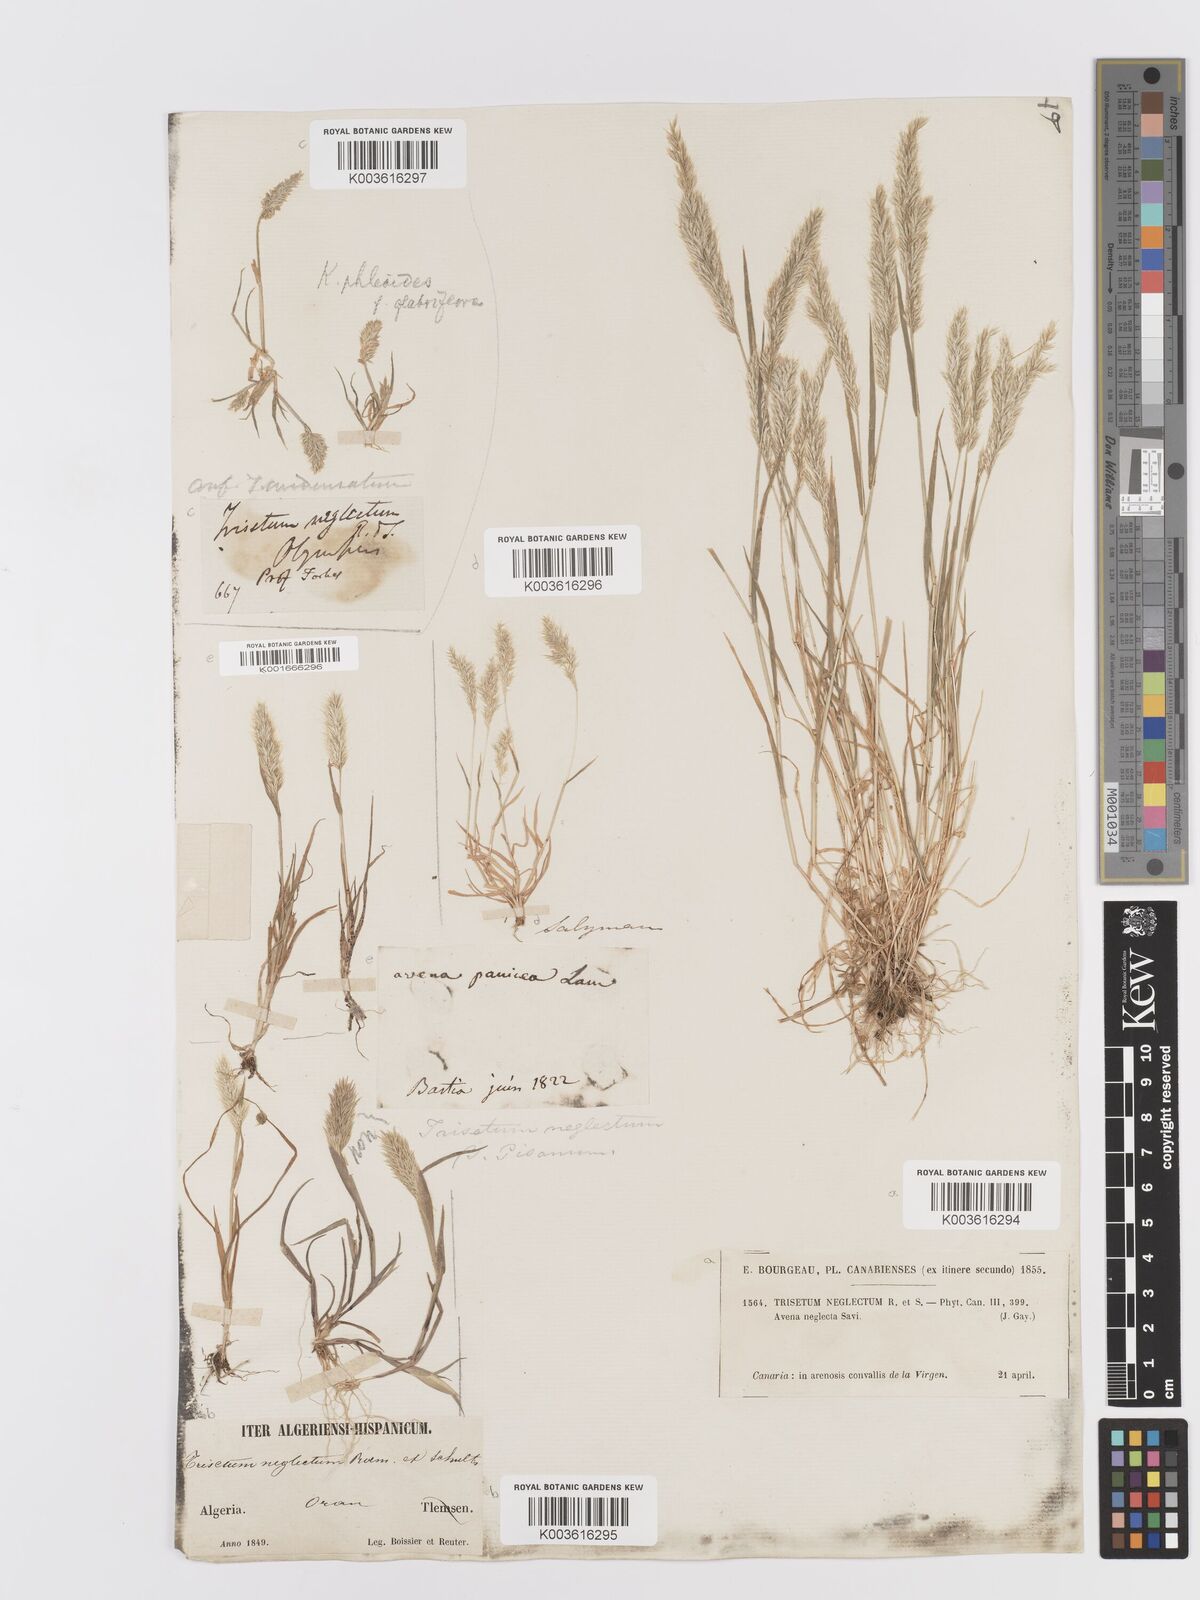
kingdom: Plantae
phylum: Tracheophyta
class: Liliopsida
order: Poales
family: Poaceae
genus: Trisetaria
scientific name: Trisetaria panicea
